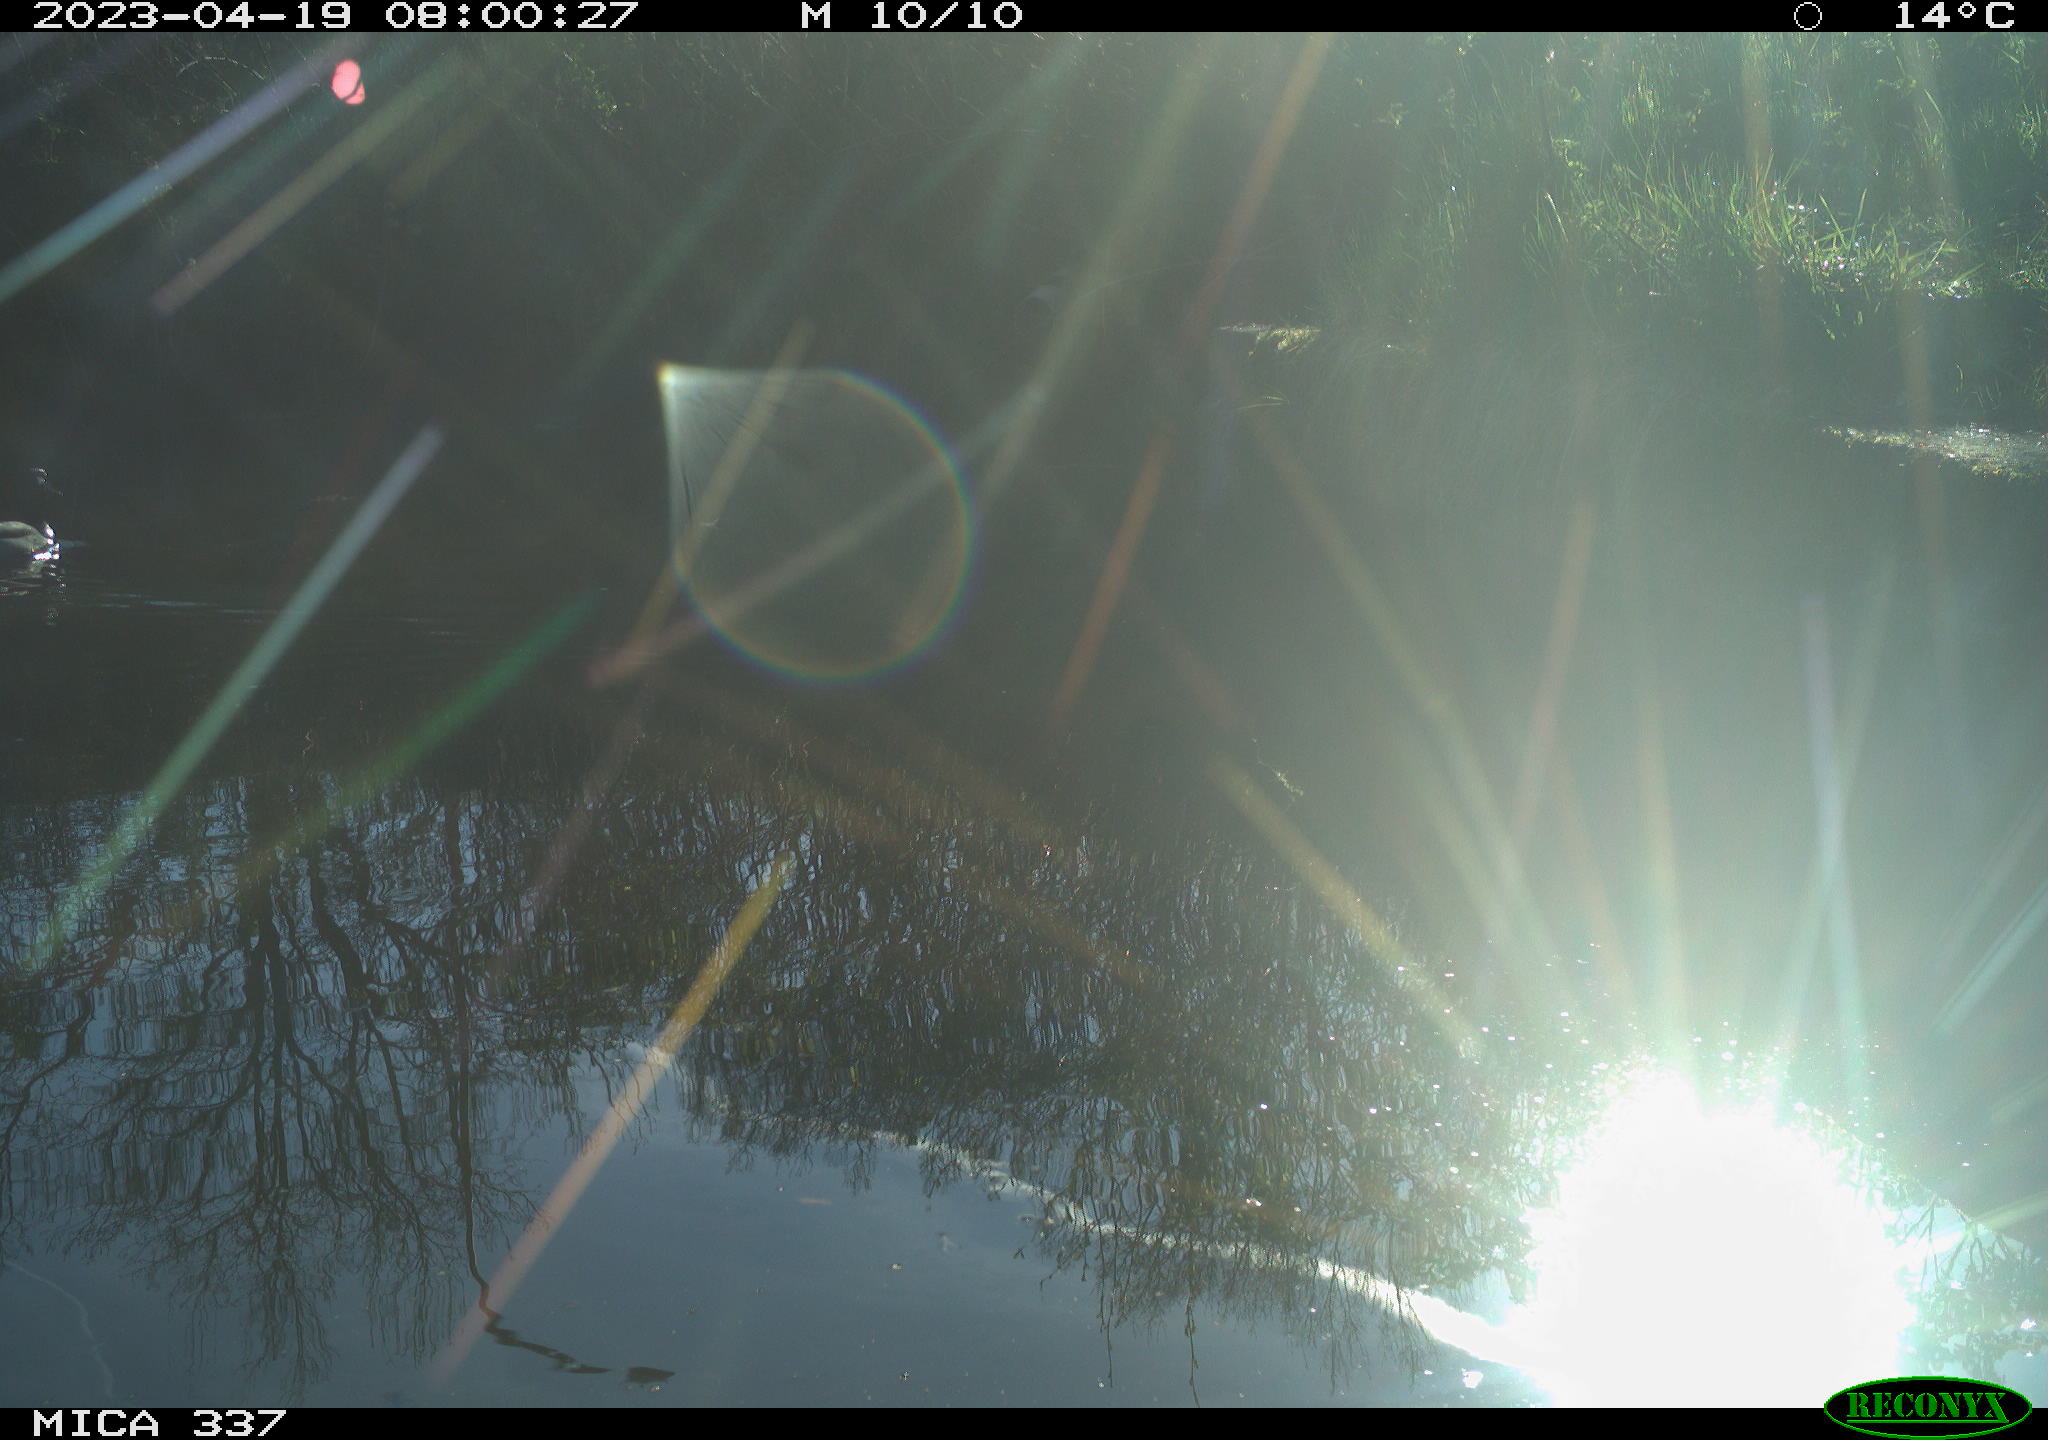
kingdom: Animalia
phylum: Chordata
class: Aves
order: Anseriformes
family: Anatidae
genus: Anas
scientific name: Anas
